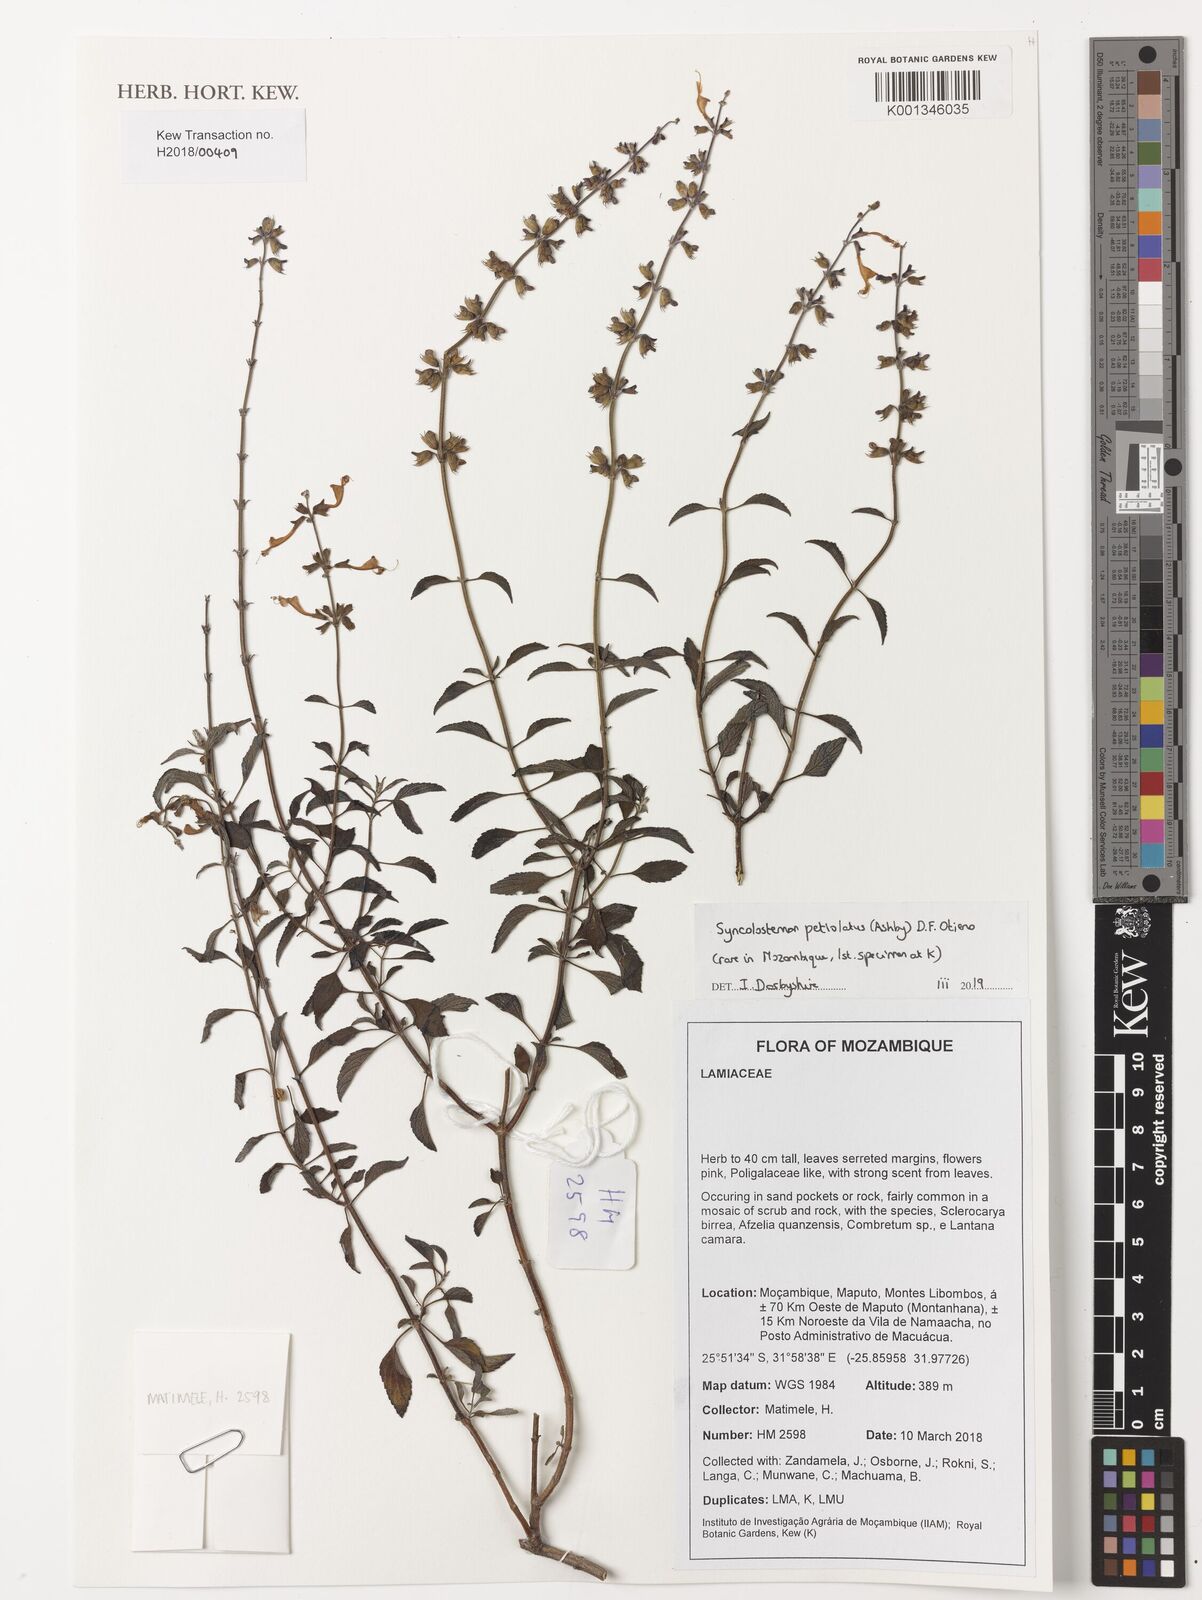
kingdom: Plantae
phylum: Tracheophyta
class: Magnoliopsida
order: Lamiales
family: Lamiaceae
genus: Syncolostemon
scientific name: Syncolostemon petiolatus
